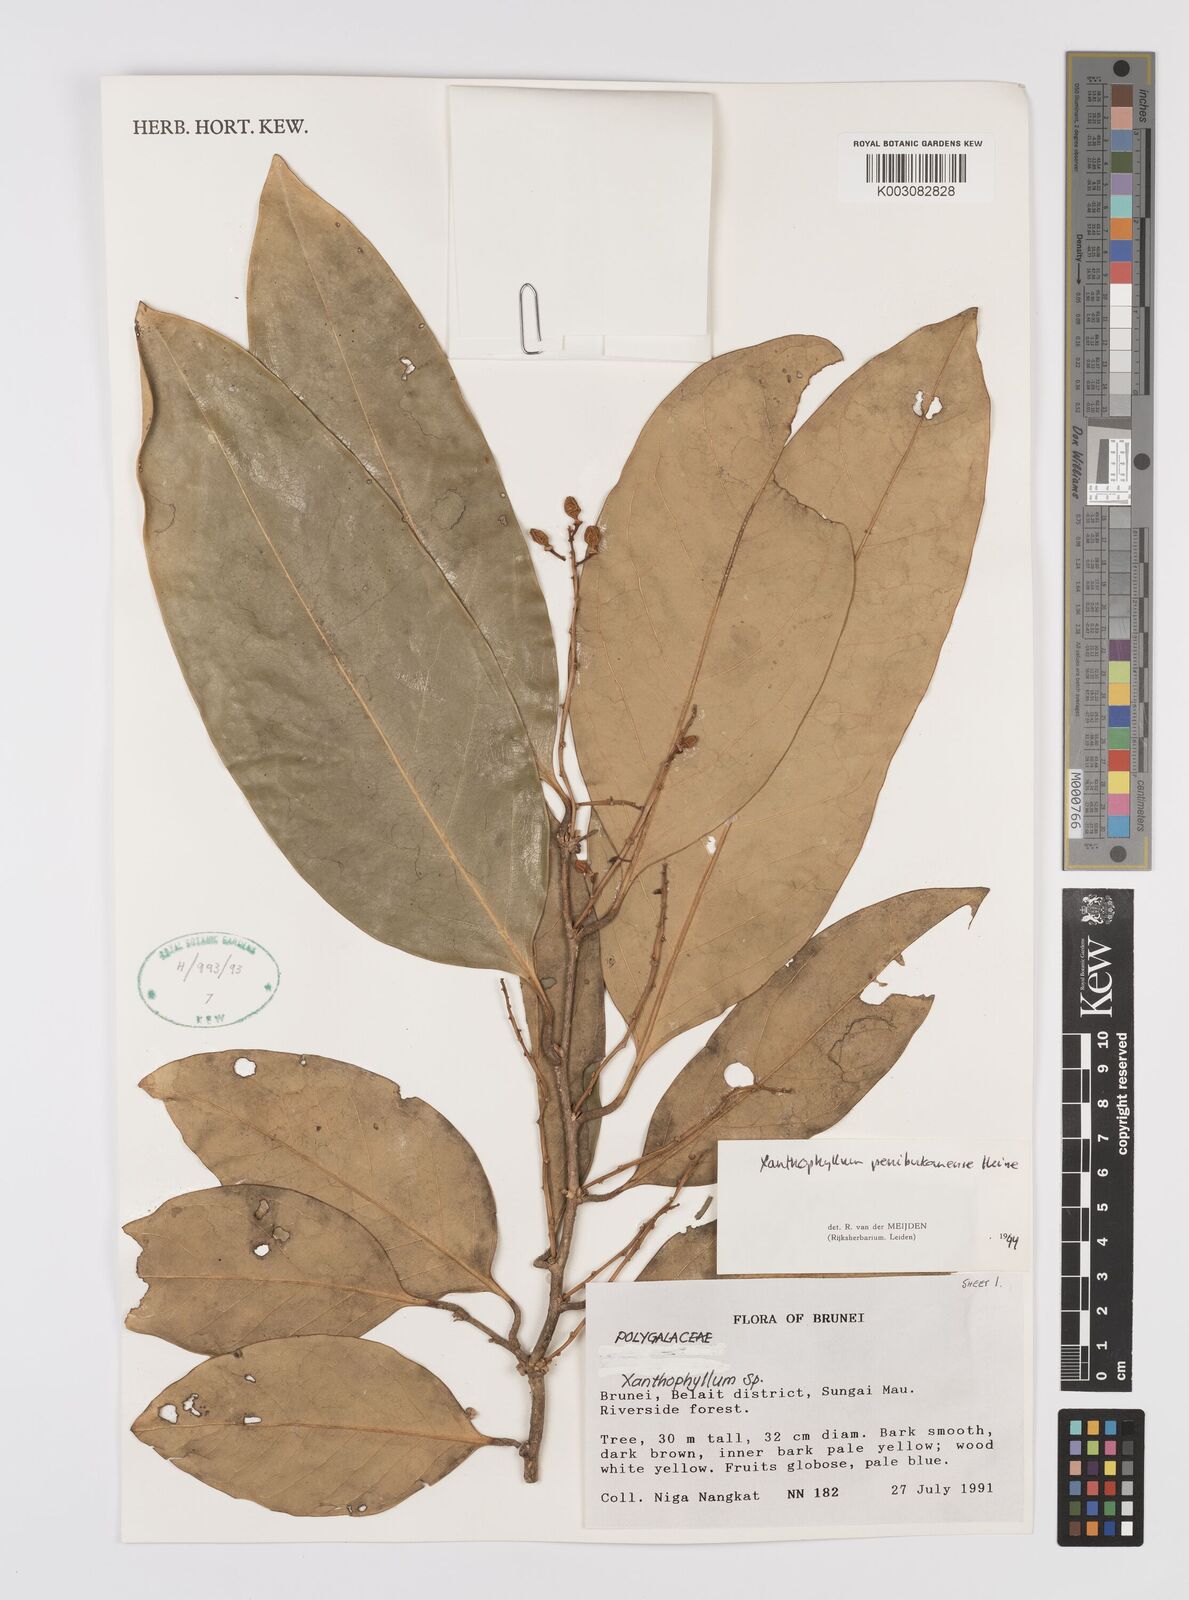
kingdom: Plantae
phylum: Tracheophyta
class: Magnoliopsida
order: Fabales
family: Polygalaceae
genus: Xanthophyllum
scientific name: Xanthophyllum penibukanense
